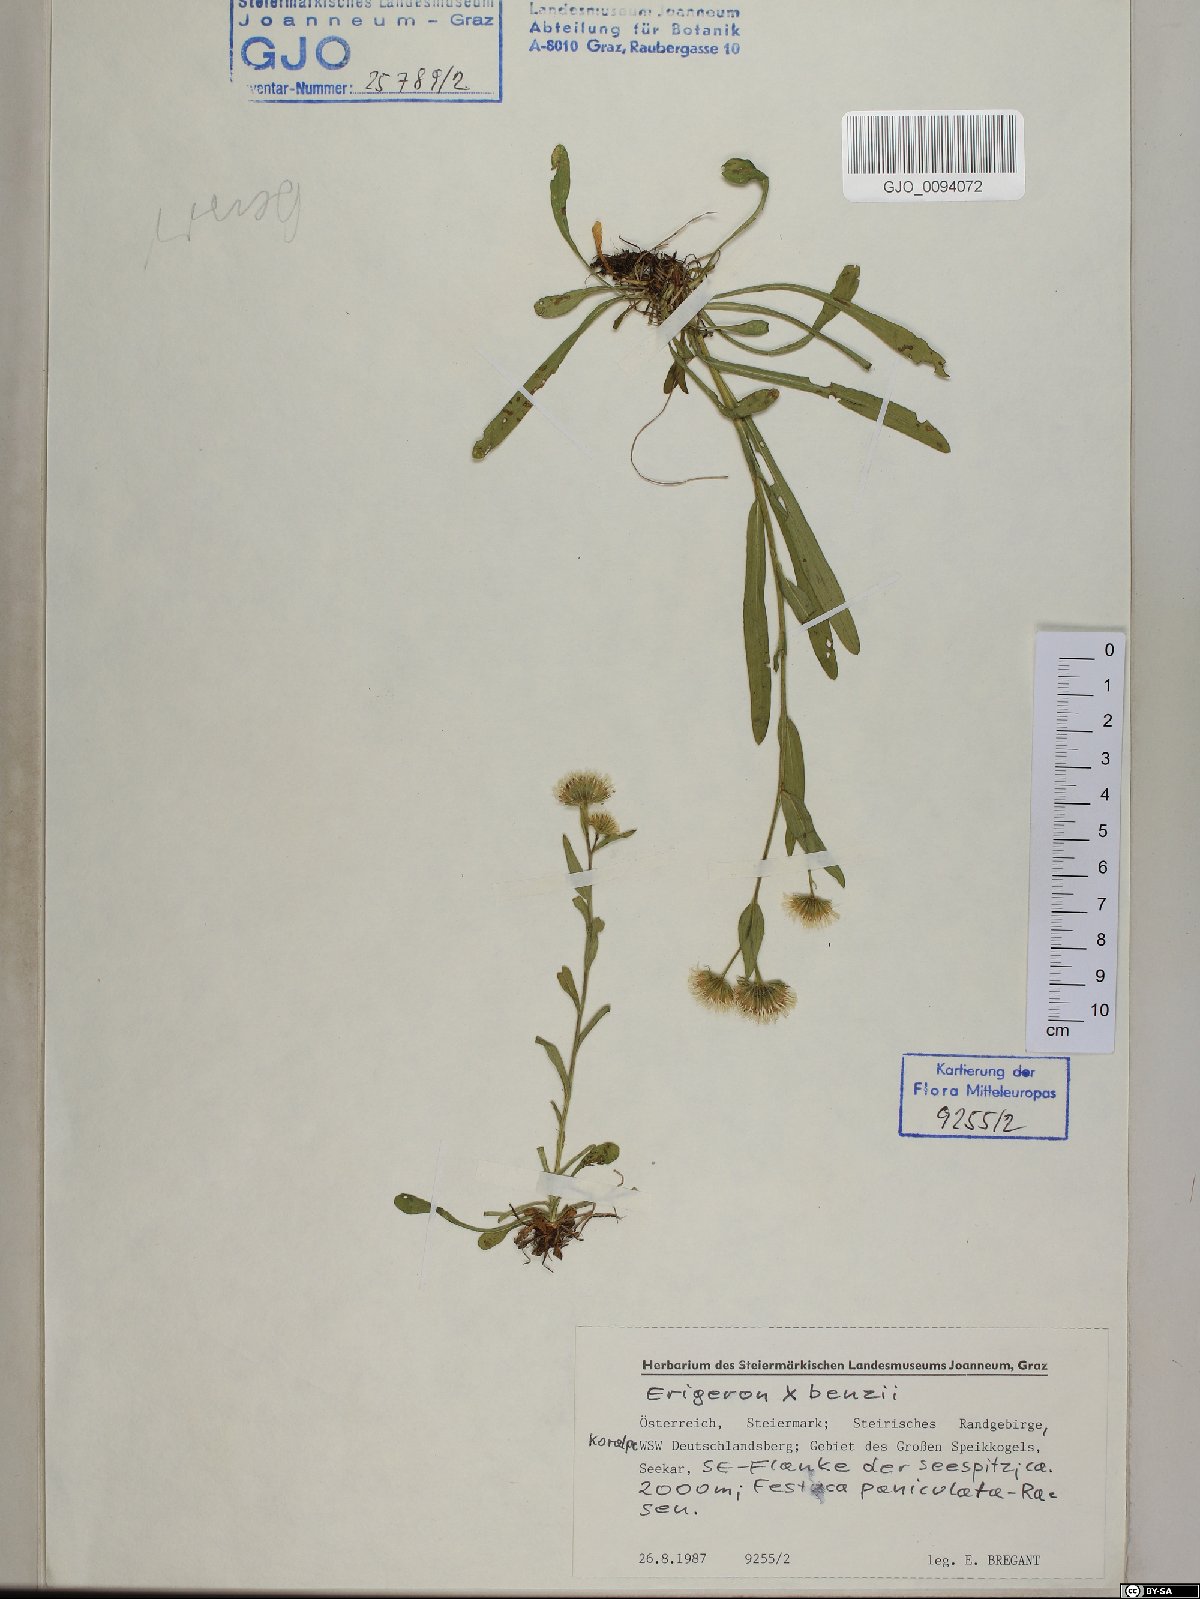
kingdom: Plantae
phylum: Tracheophyta
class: Magnoliopsida
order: Asterales
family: Asteraceae
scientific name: Asteraceae
